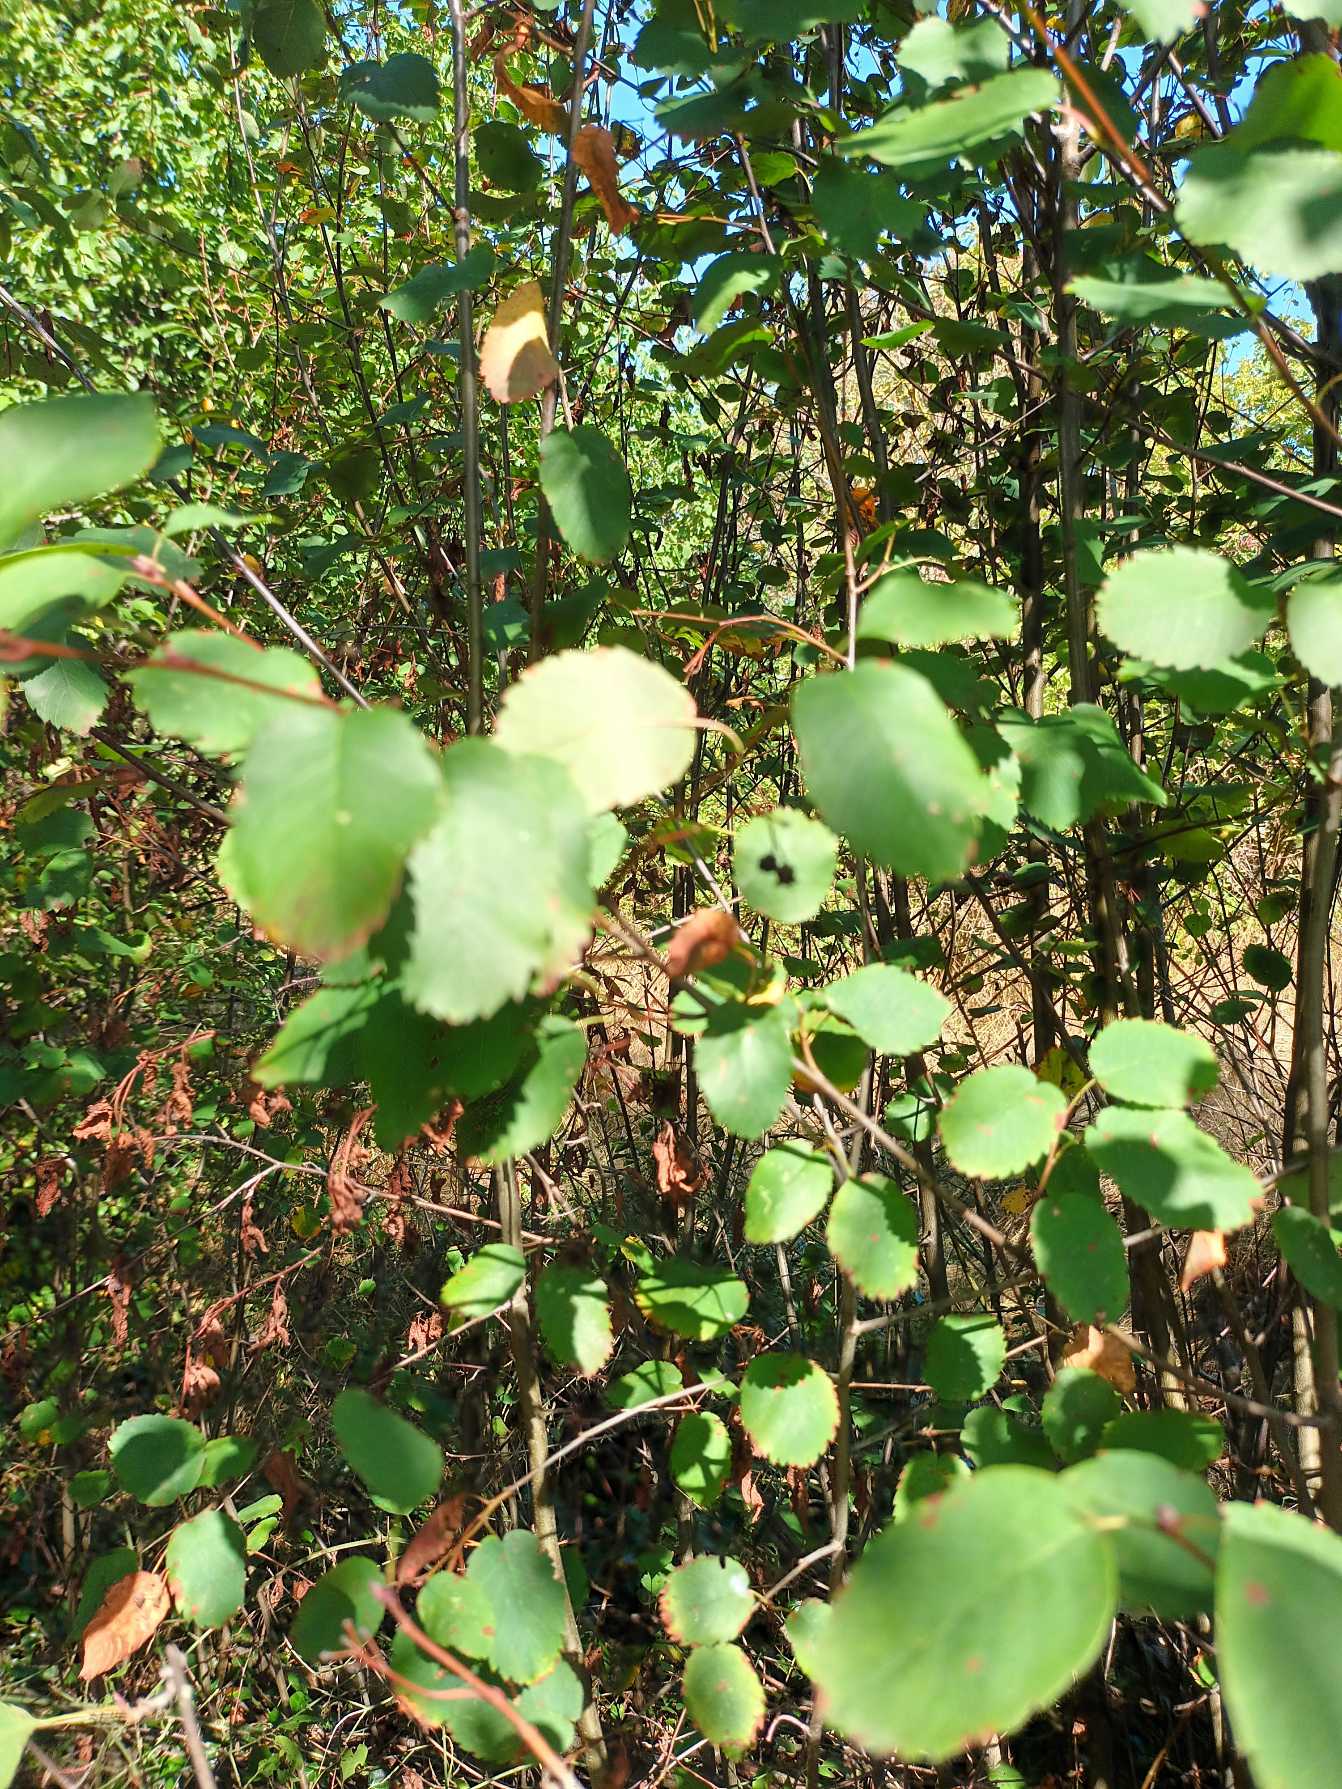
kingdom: Plantae
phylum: Tracheophyta
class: Magnoliopsida
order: Rosales
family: Rosaceae
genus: Amelanchier
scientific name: Amelanchier alnifolia
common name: Ellebladet bærmispel
